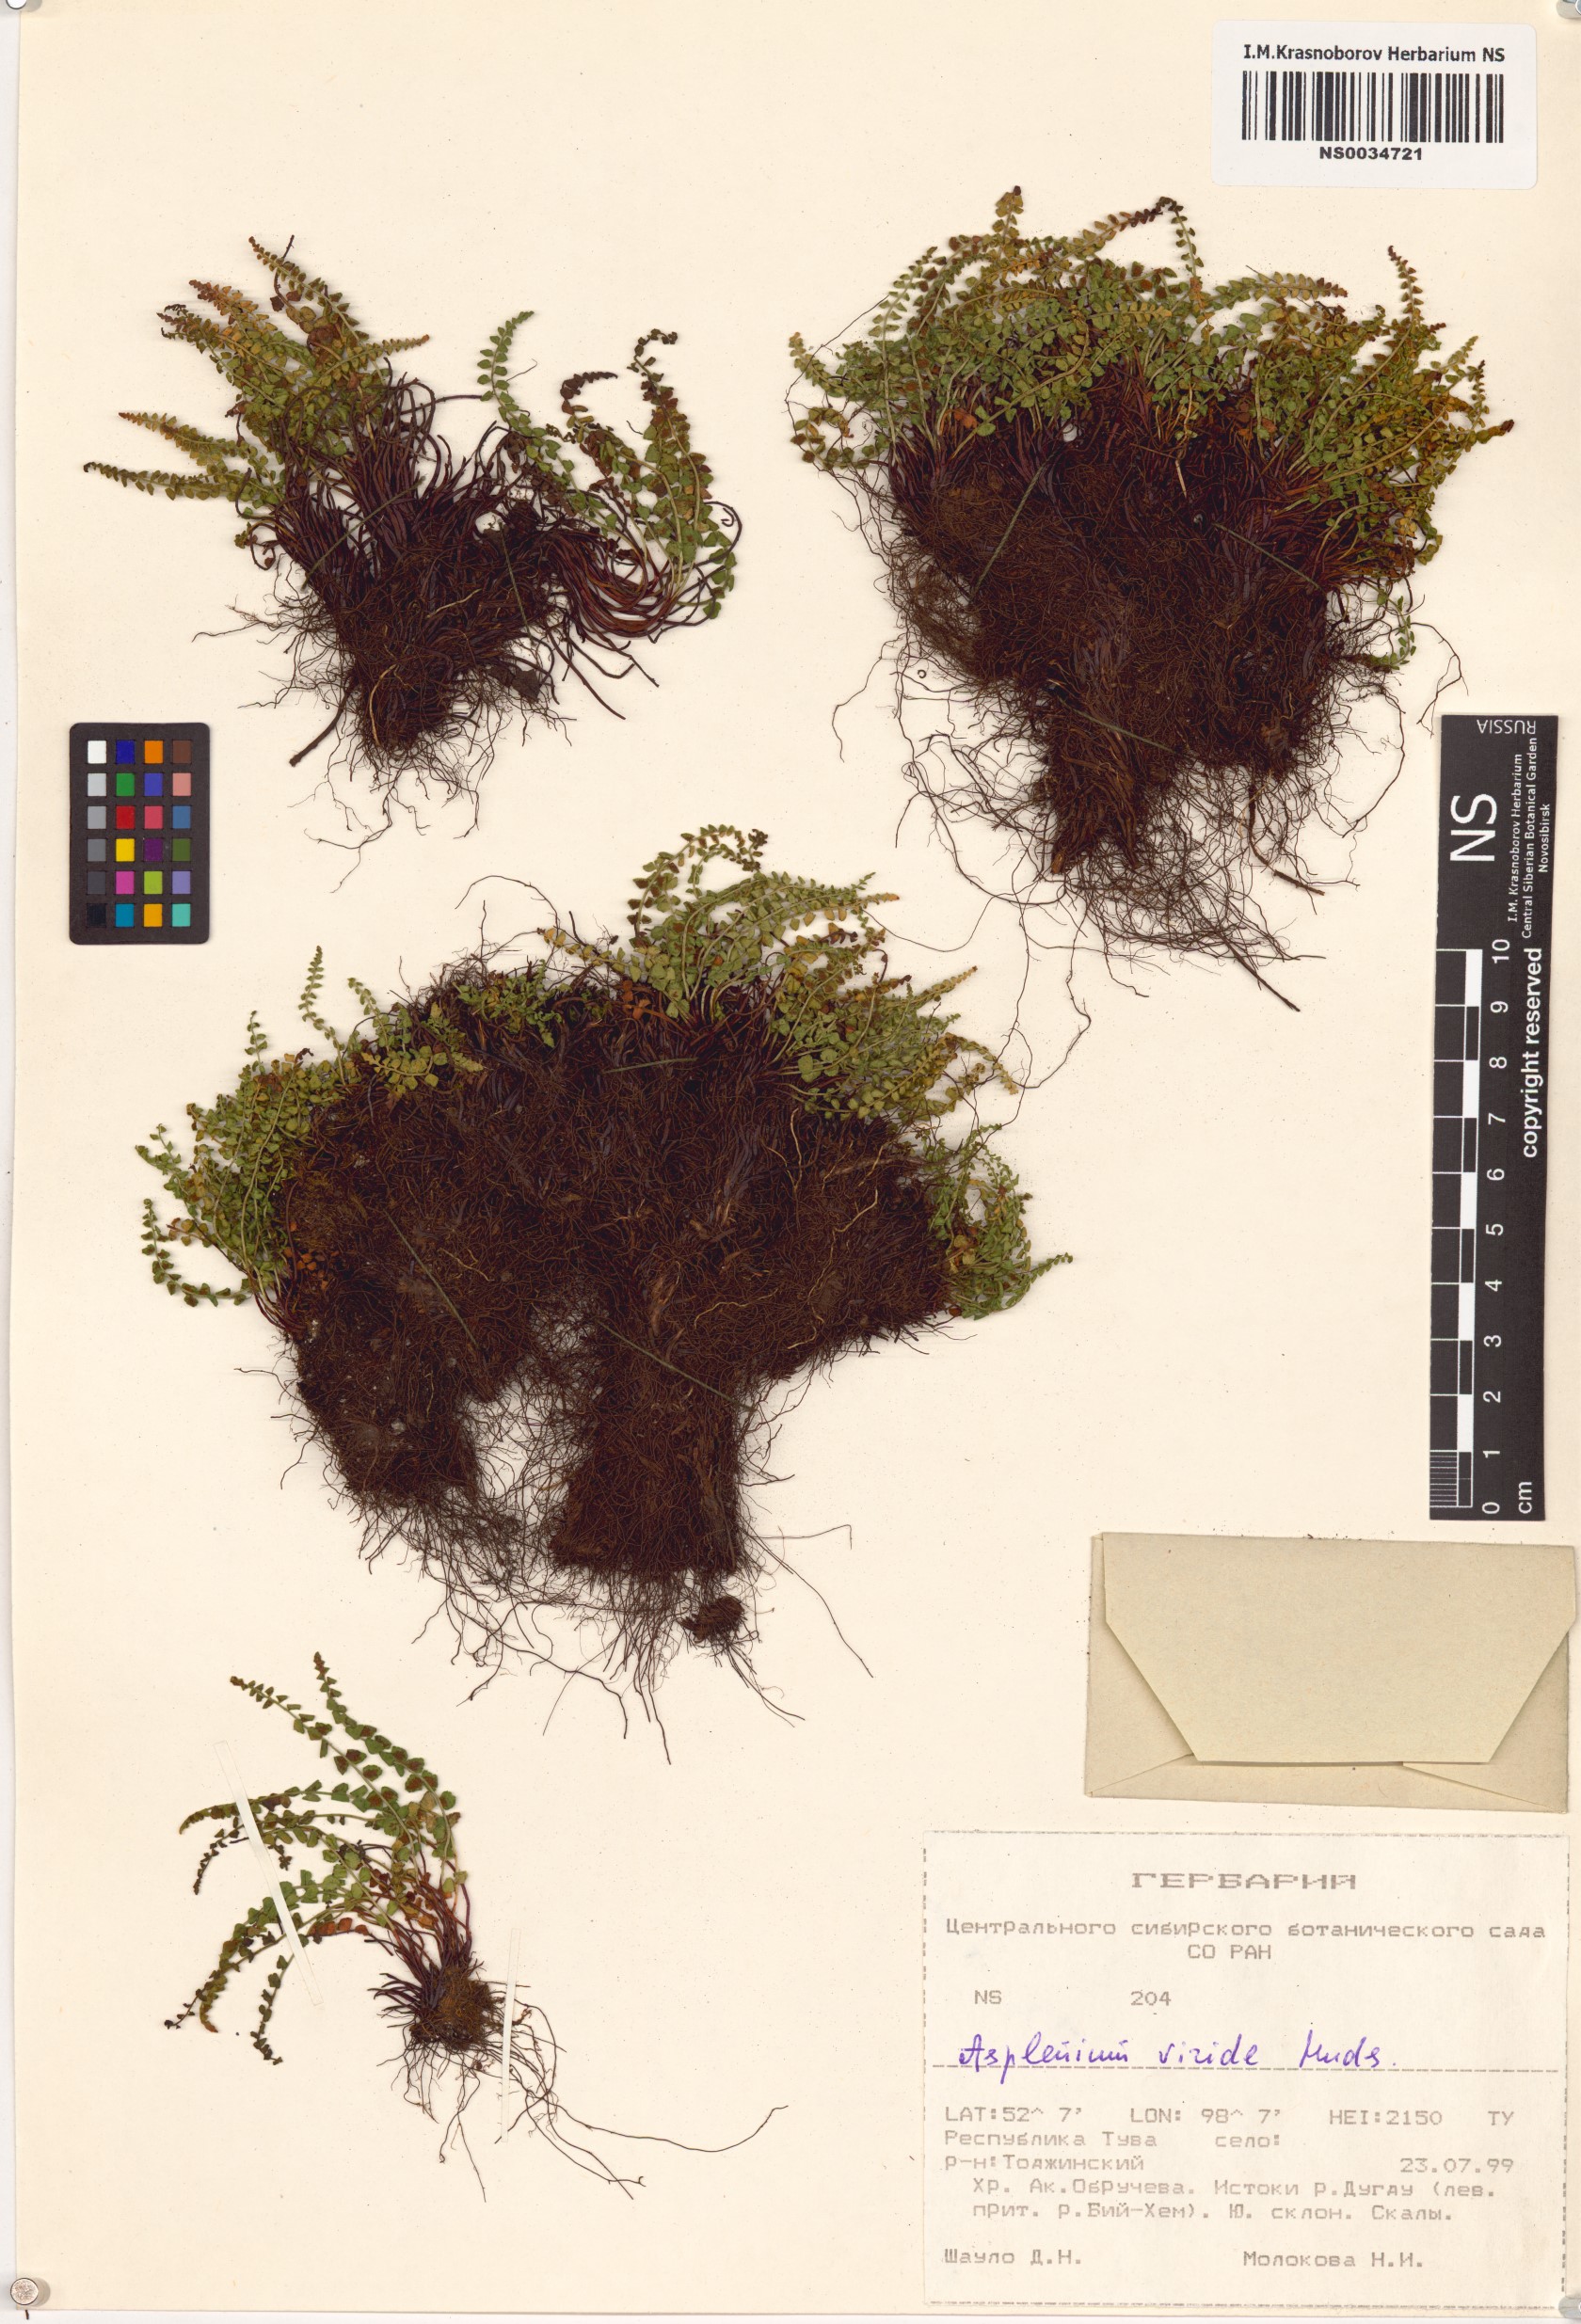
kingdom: Plantae
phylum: Tracheophyta
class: Polypodiopsida
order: Polypodiales
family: Aspleniaceae
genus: Asplenium
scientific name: Asplenium viride
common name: Green spleenwort
